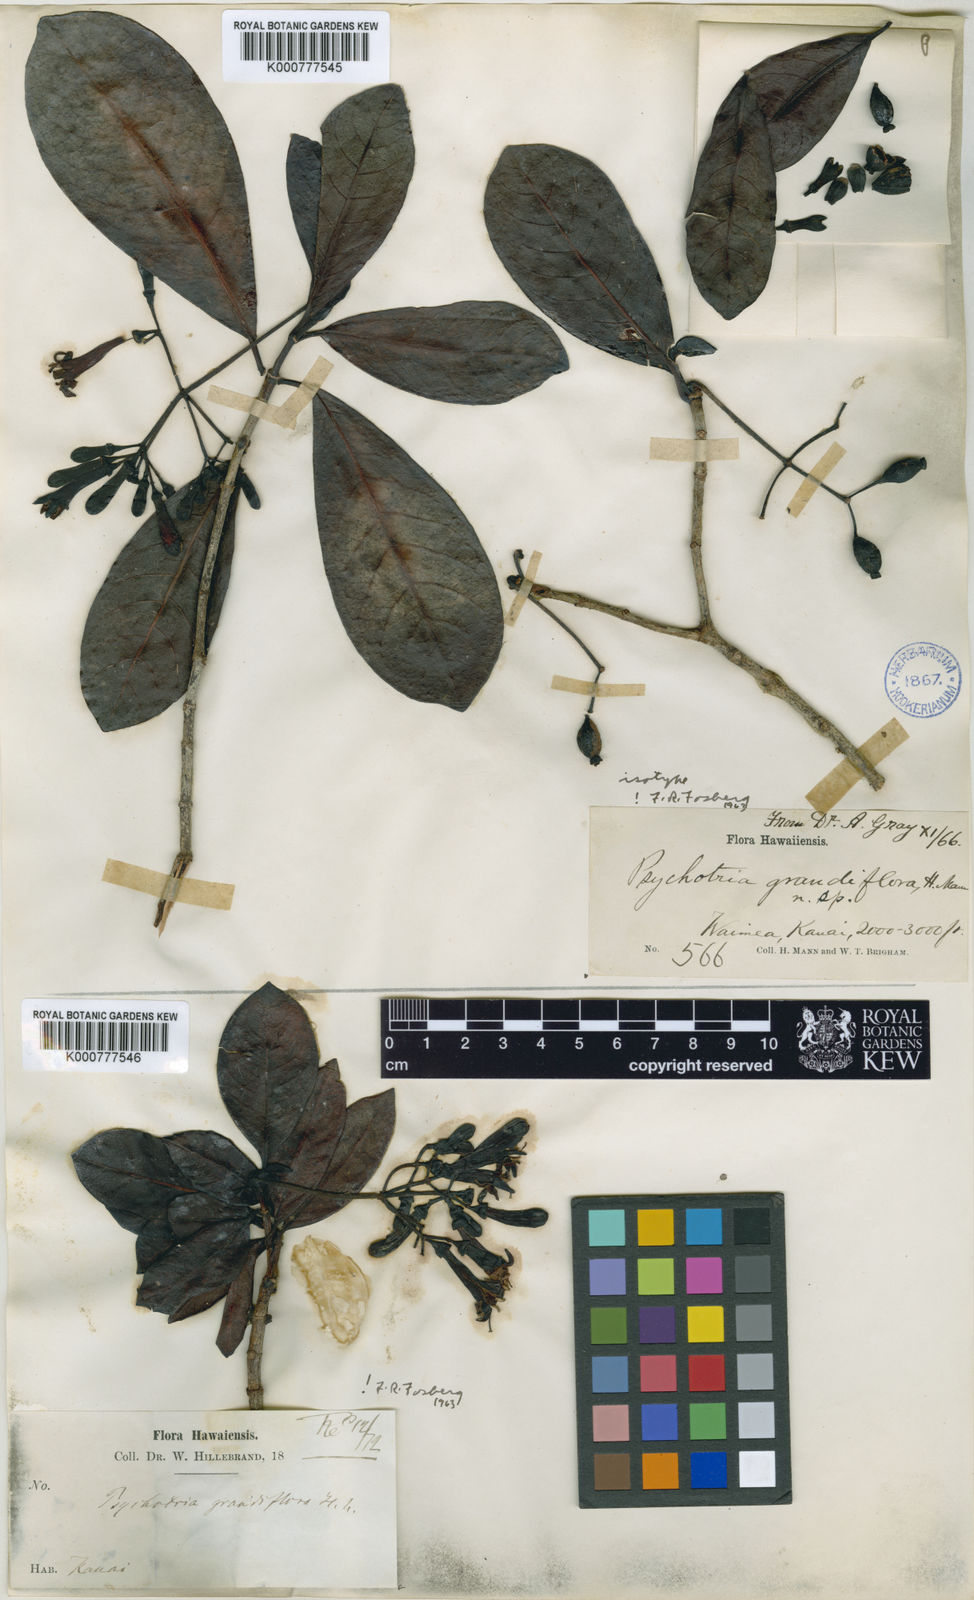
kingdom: Plantae
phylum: Tracheophyta
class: Magnoliopsida
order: Gentianales
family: Rubiaceae
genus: Psychotria
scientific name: Psychotria grandiflora
